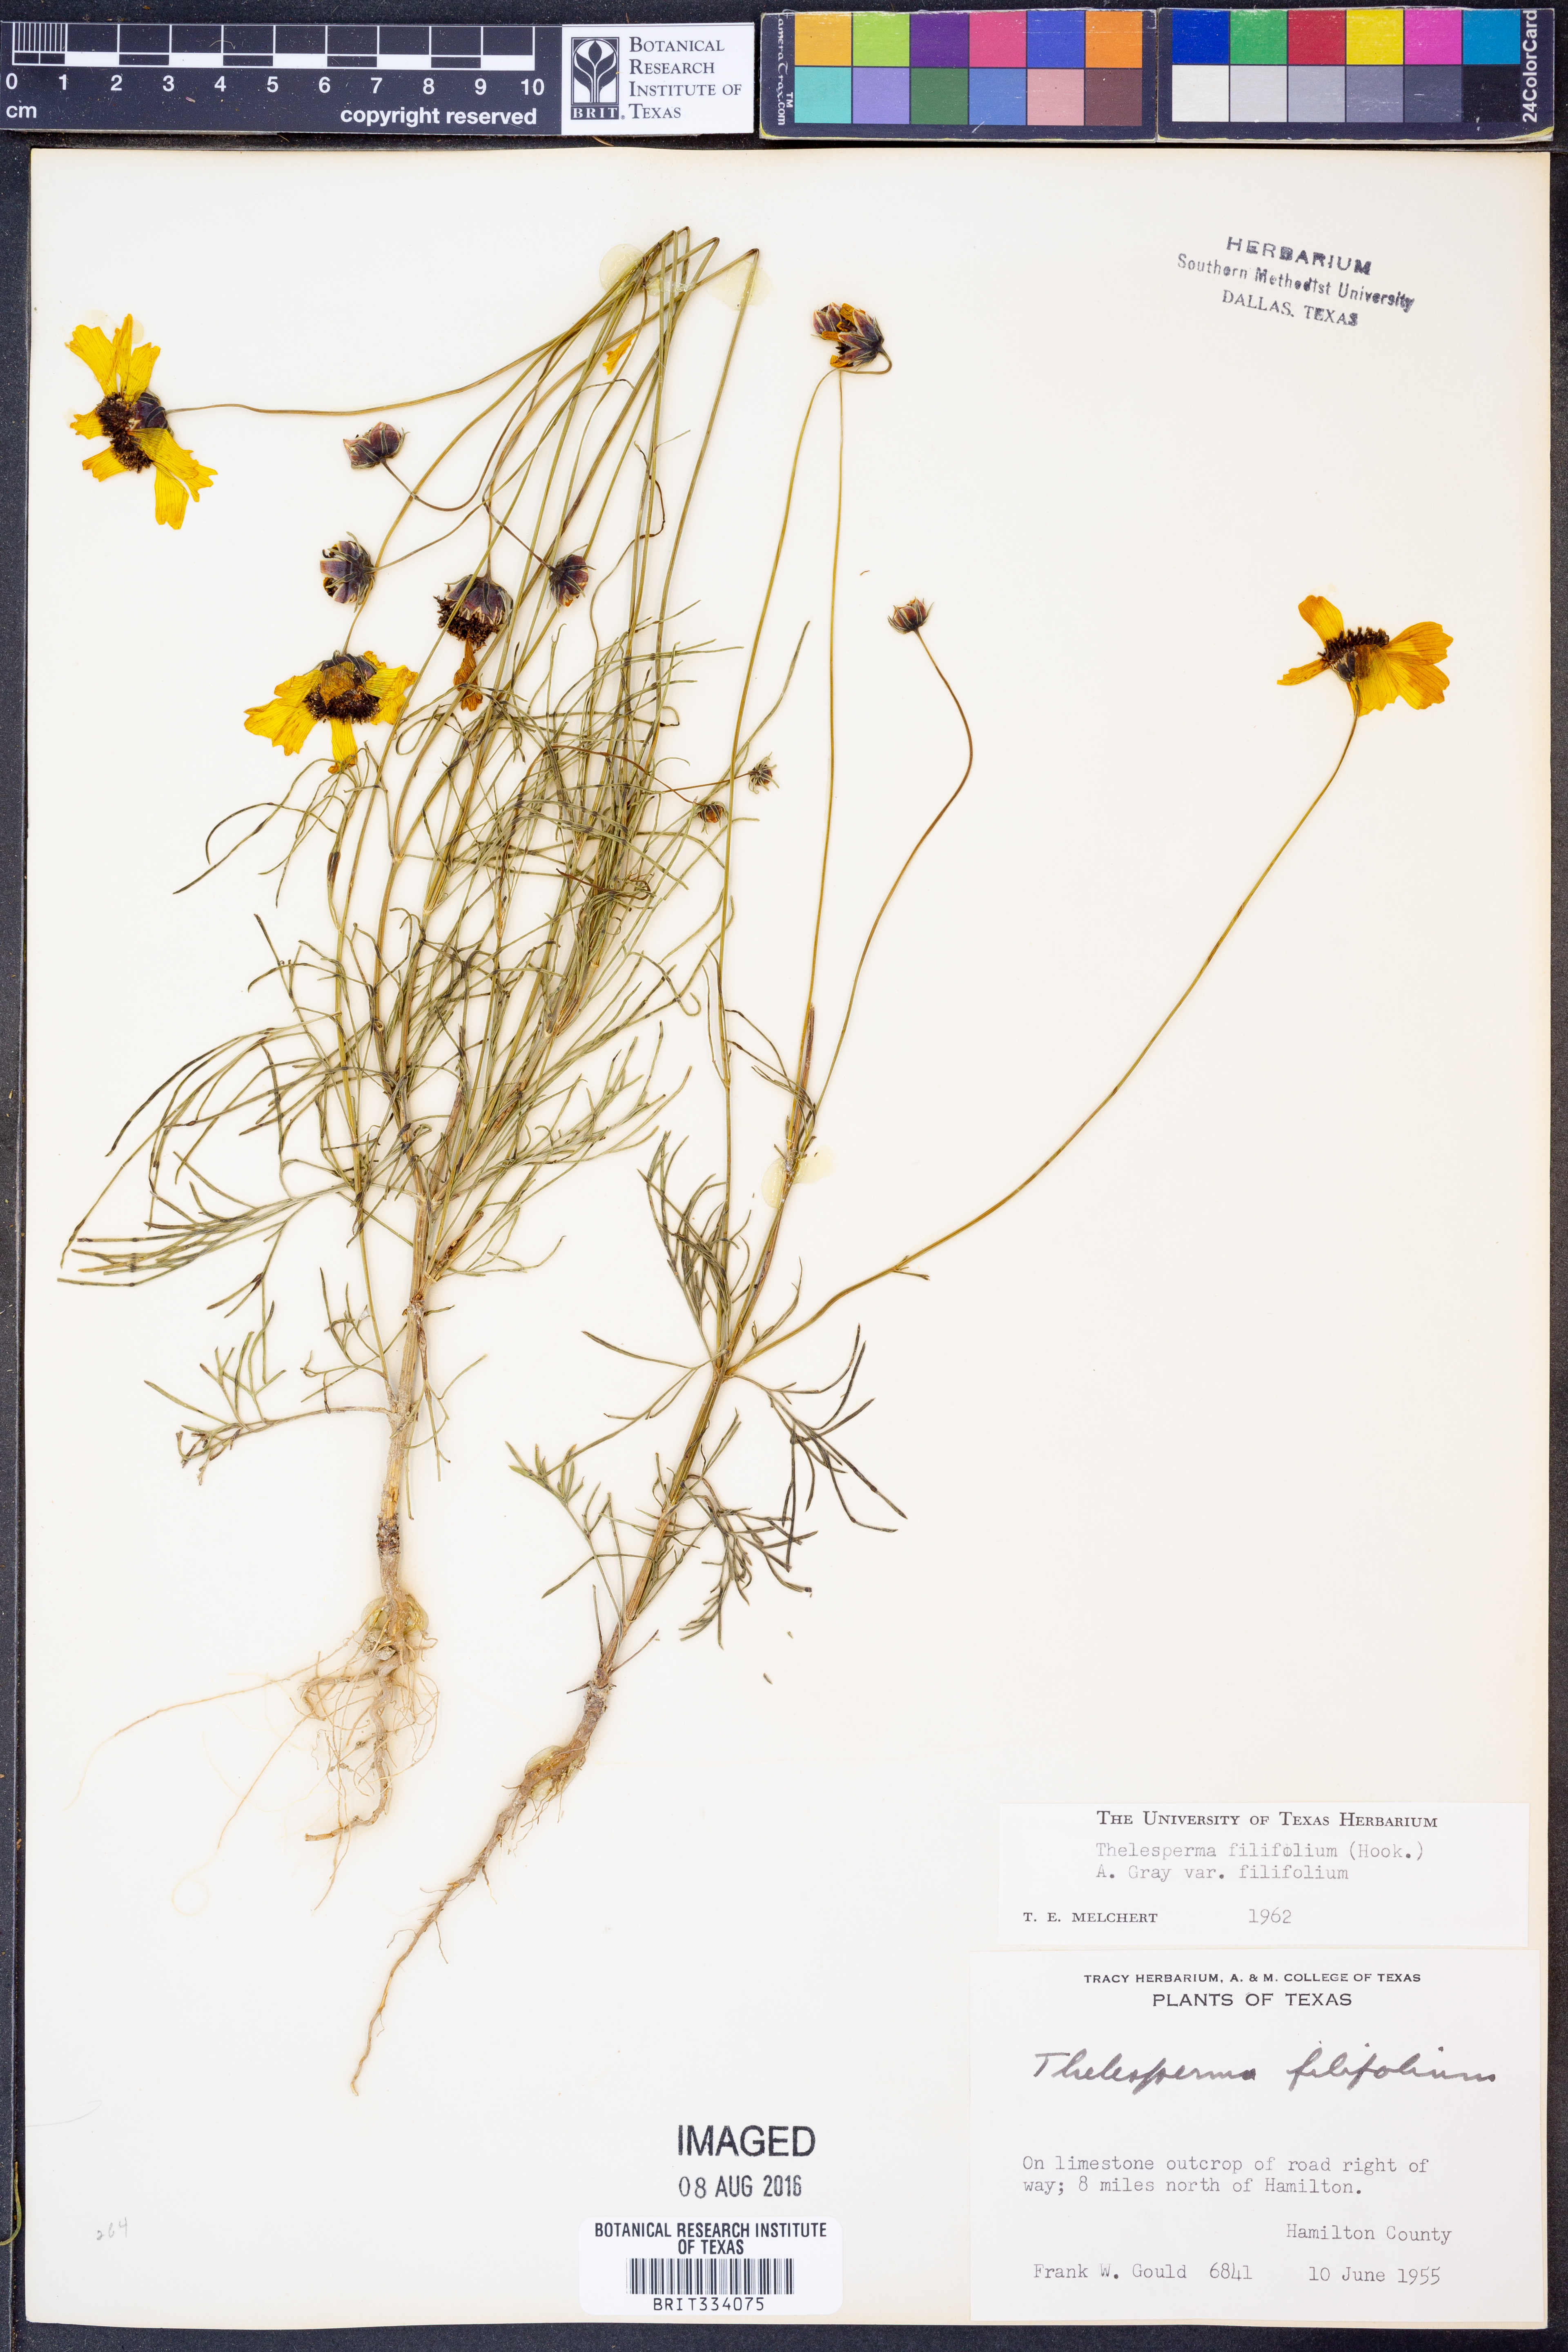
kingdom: Plantae
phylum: Tracheophyta
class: Magnoliopsida
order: Asterales
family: Asteraceae
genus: Thelesperma
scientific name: Thelesperma filifolium
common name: Stiff greenthread
